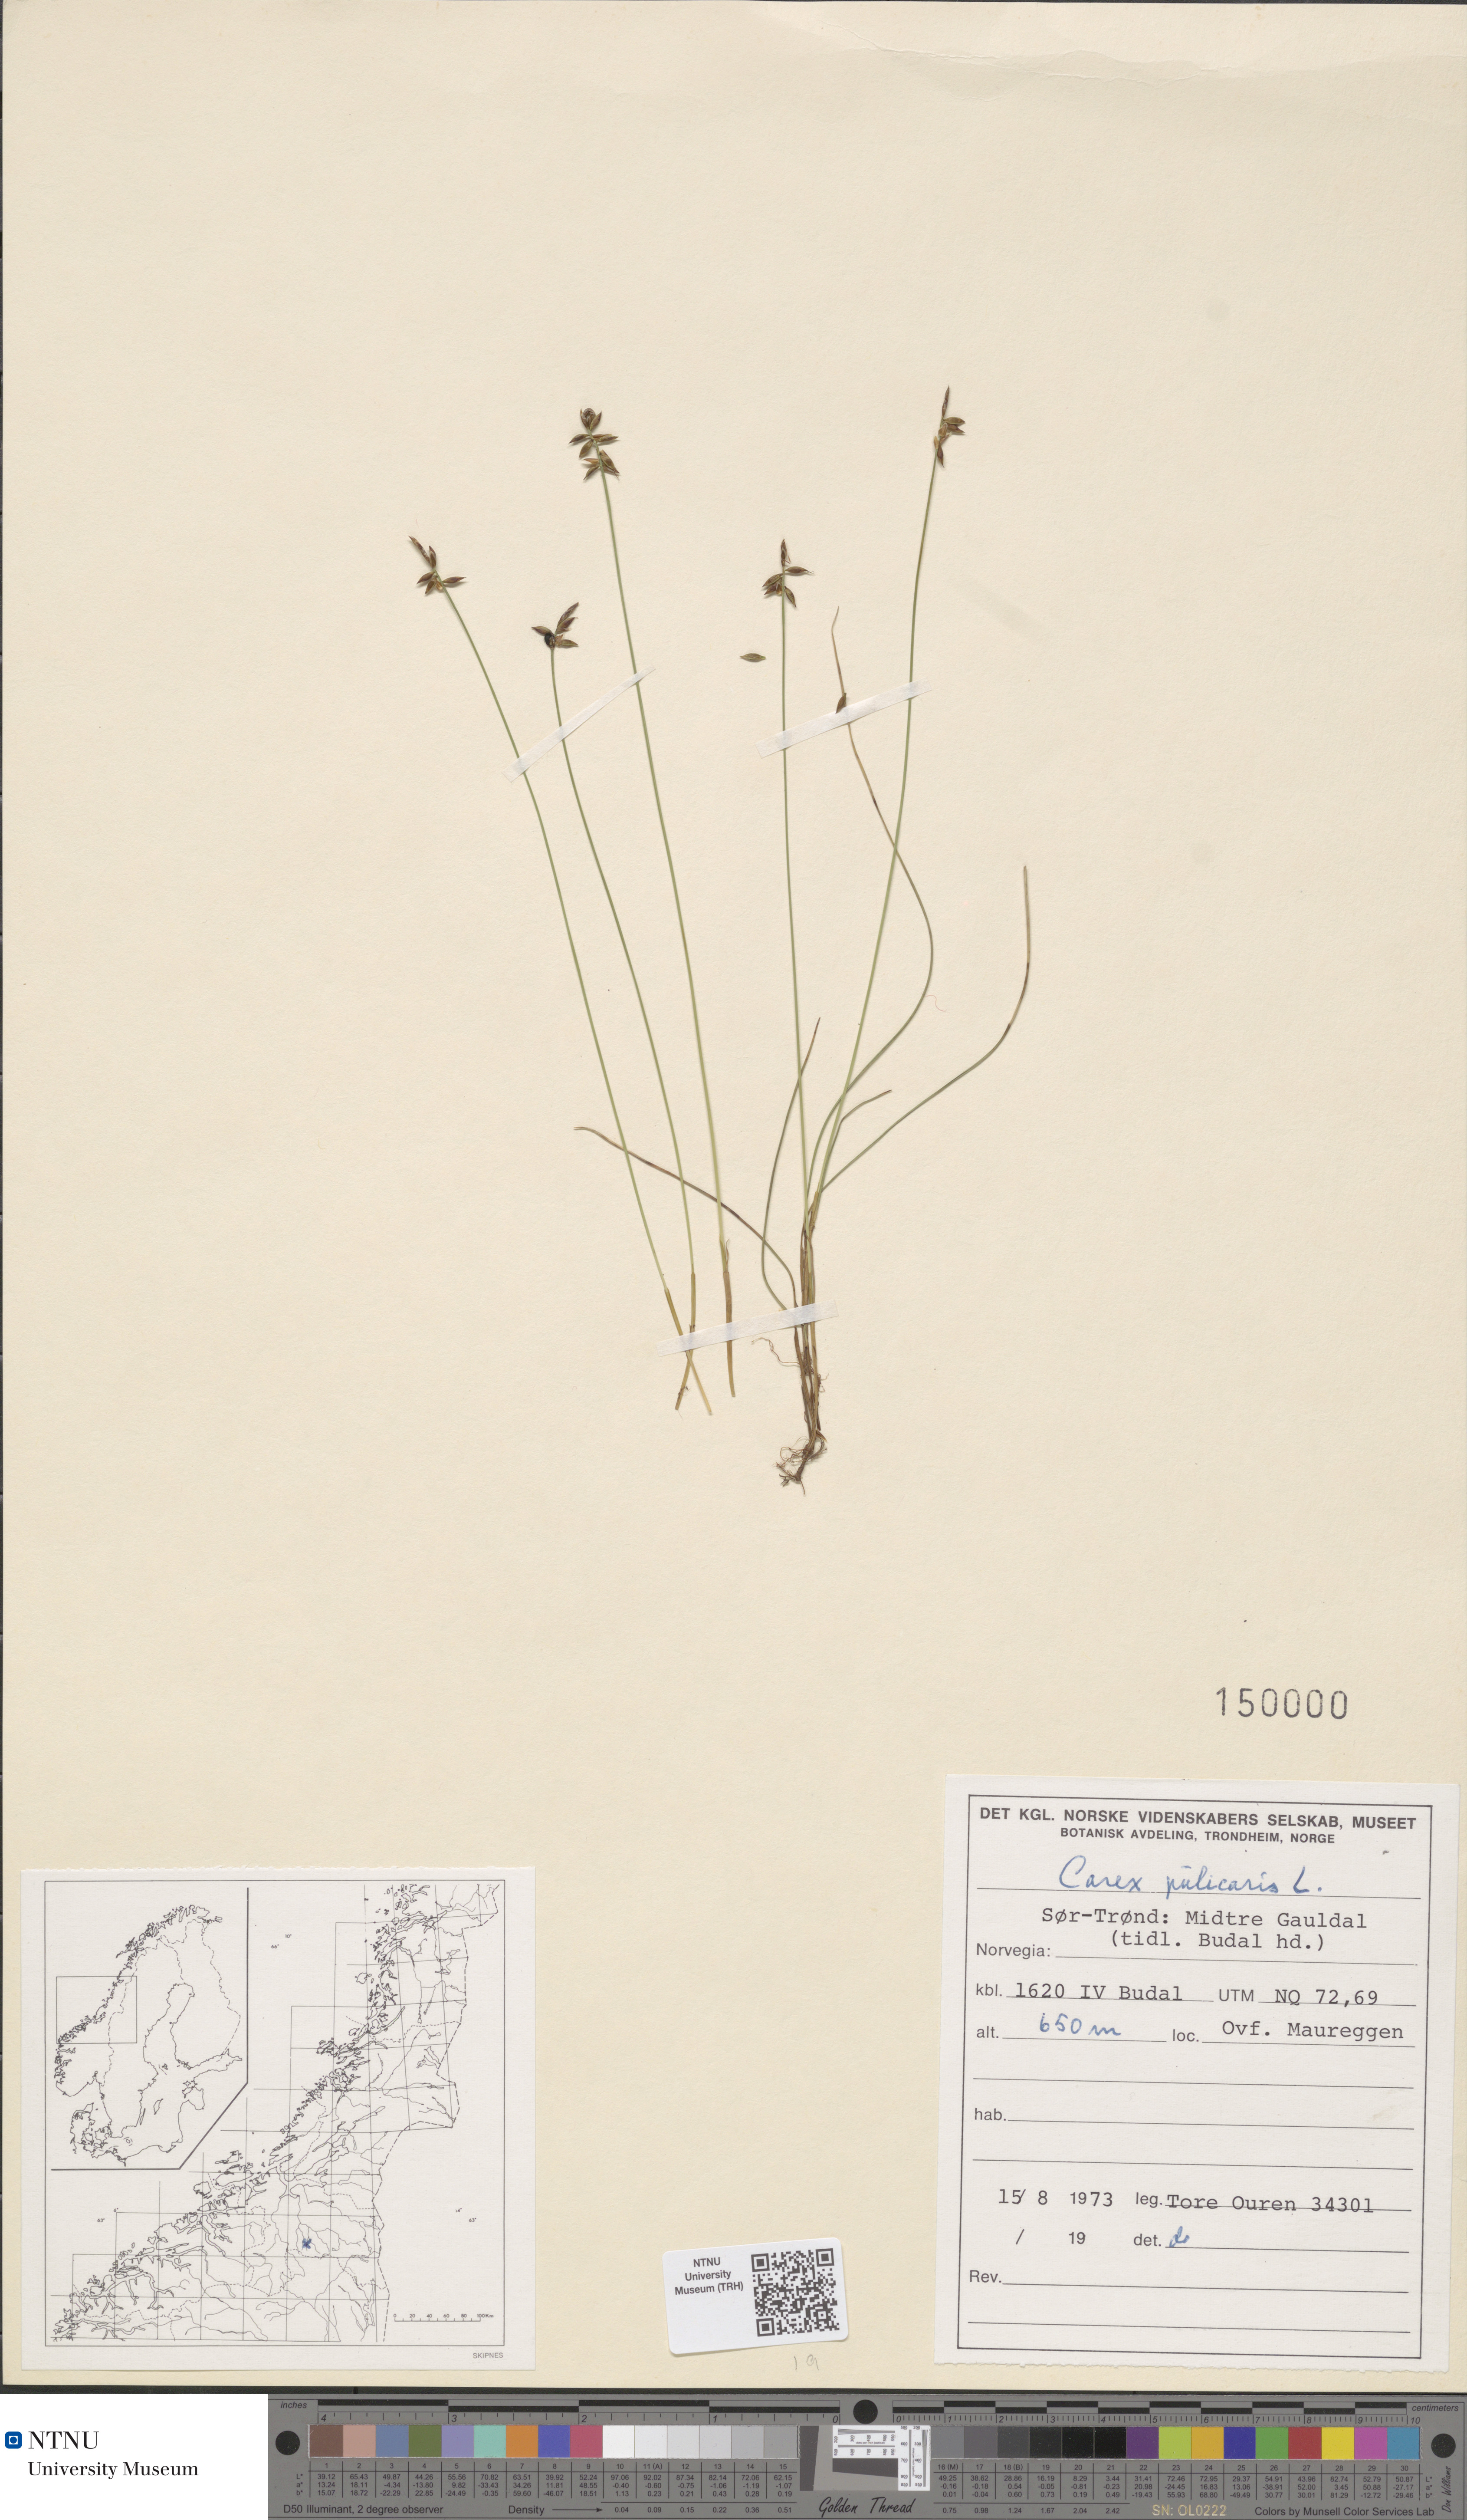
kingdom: Plantae
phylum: Tracheophyta
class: Liliopsida
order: Poales
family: Cyperaceae
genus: Carex
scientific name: Carex pulicaris
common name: Flea sedge
